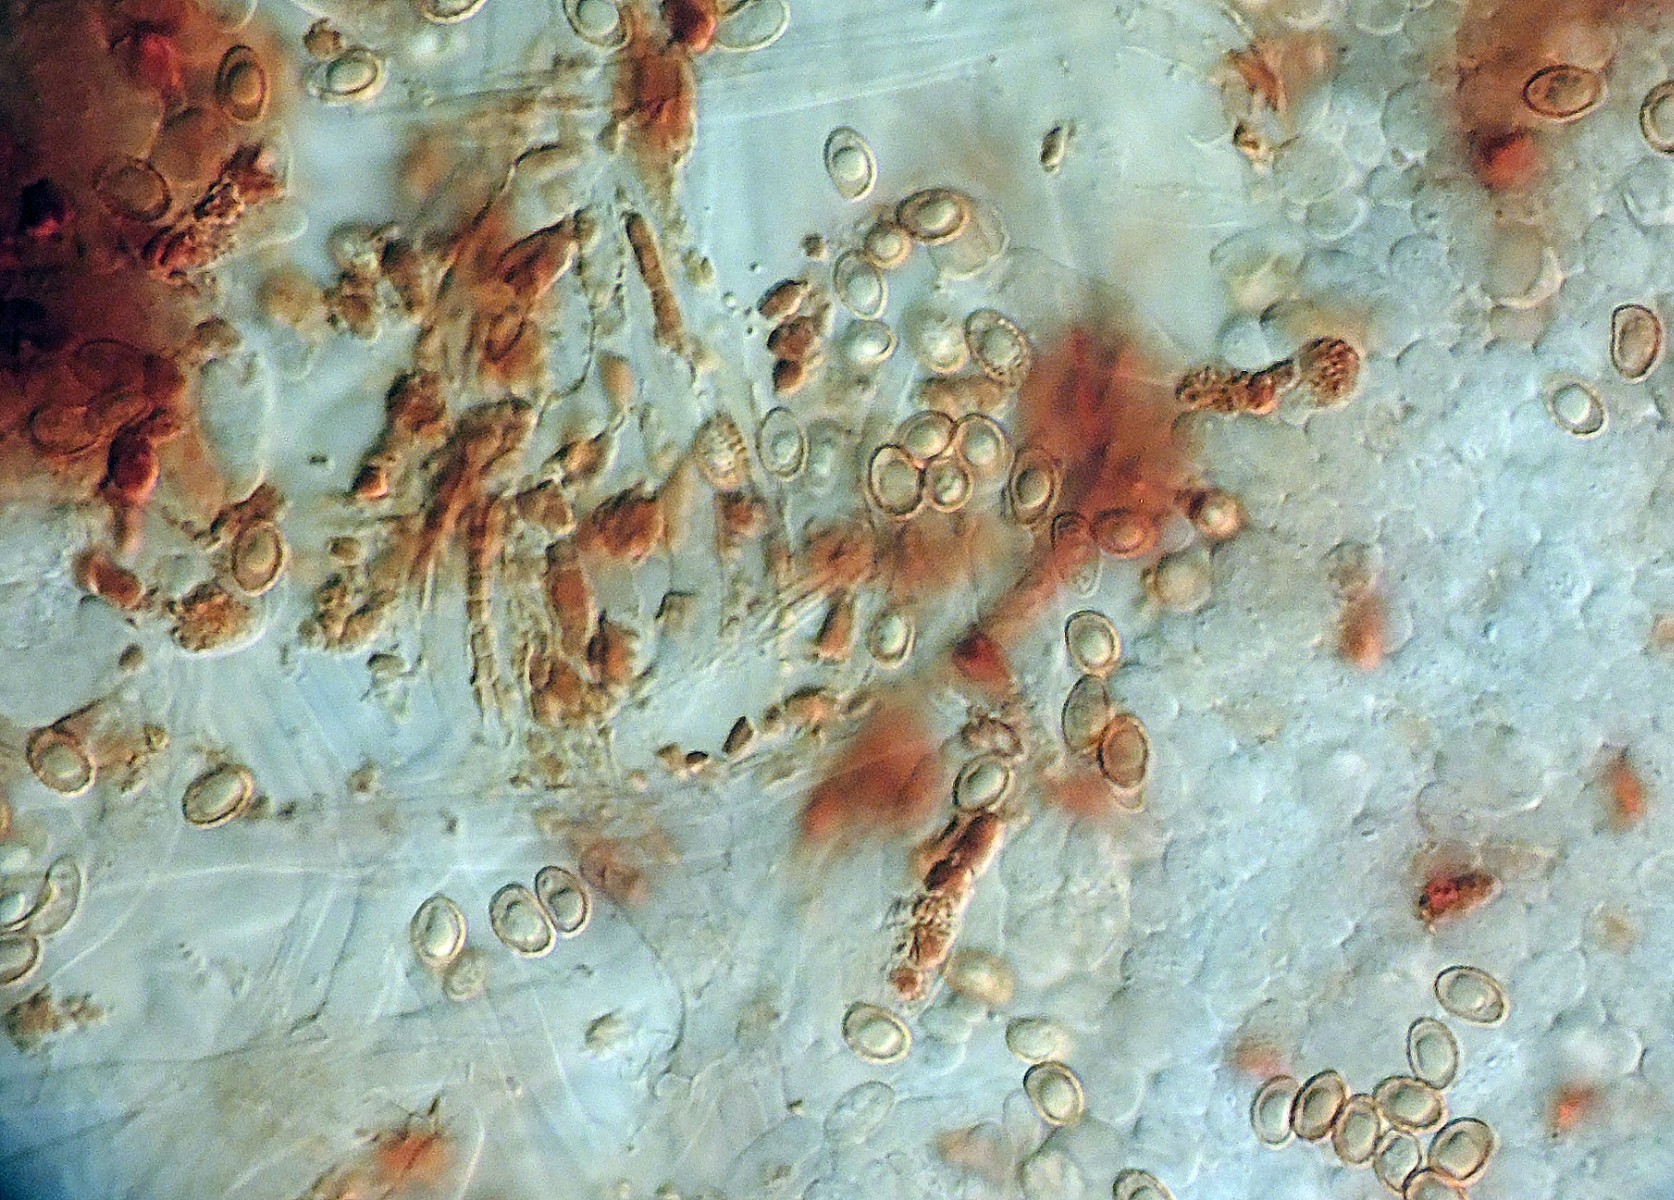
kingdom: Fungi
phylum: Basidiomycota
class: Agaricomycetes
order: Agaricales
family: Cortinariaceae
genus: Cortinarius
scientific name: Cortinarius croceus
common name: Saffron webcap
